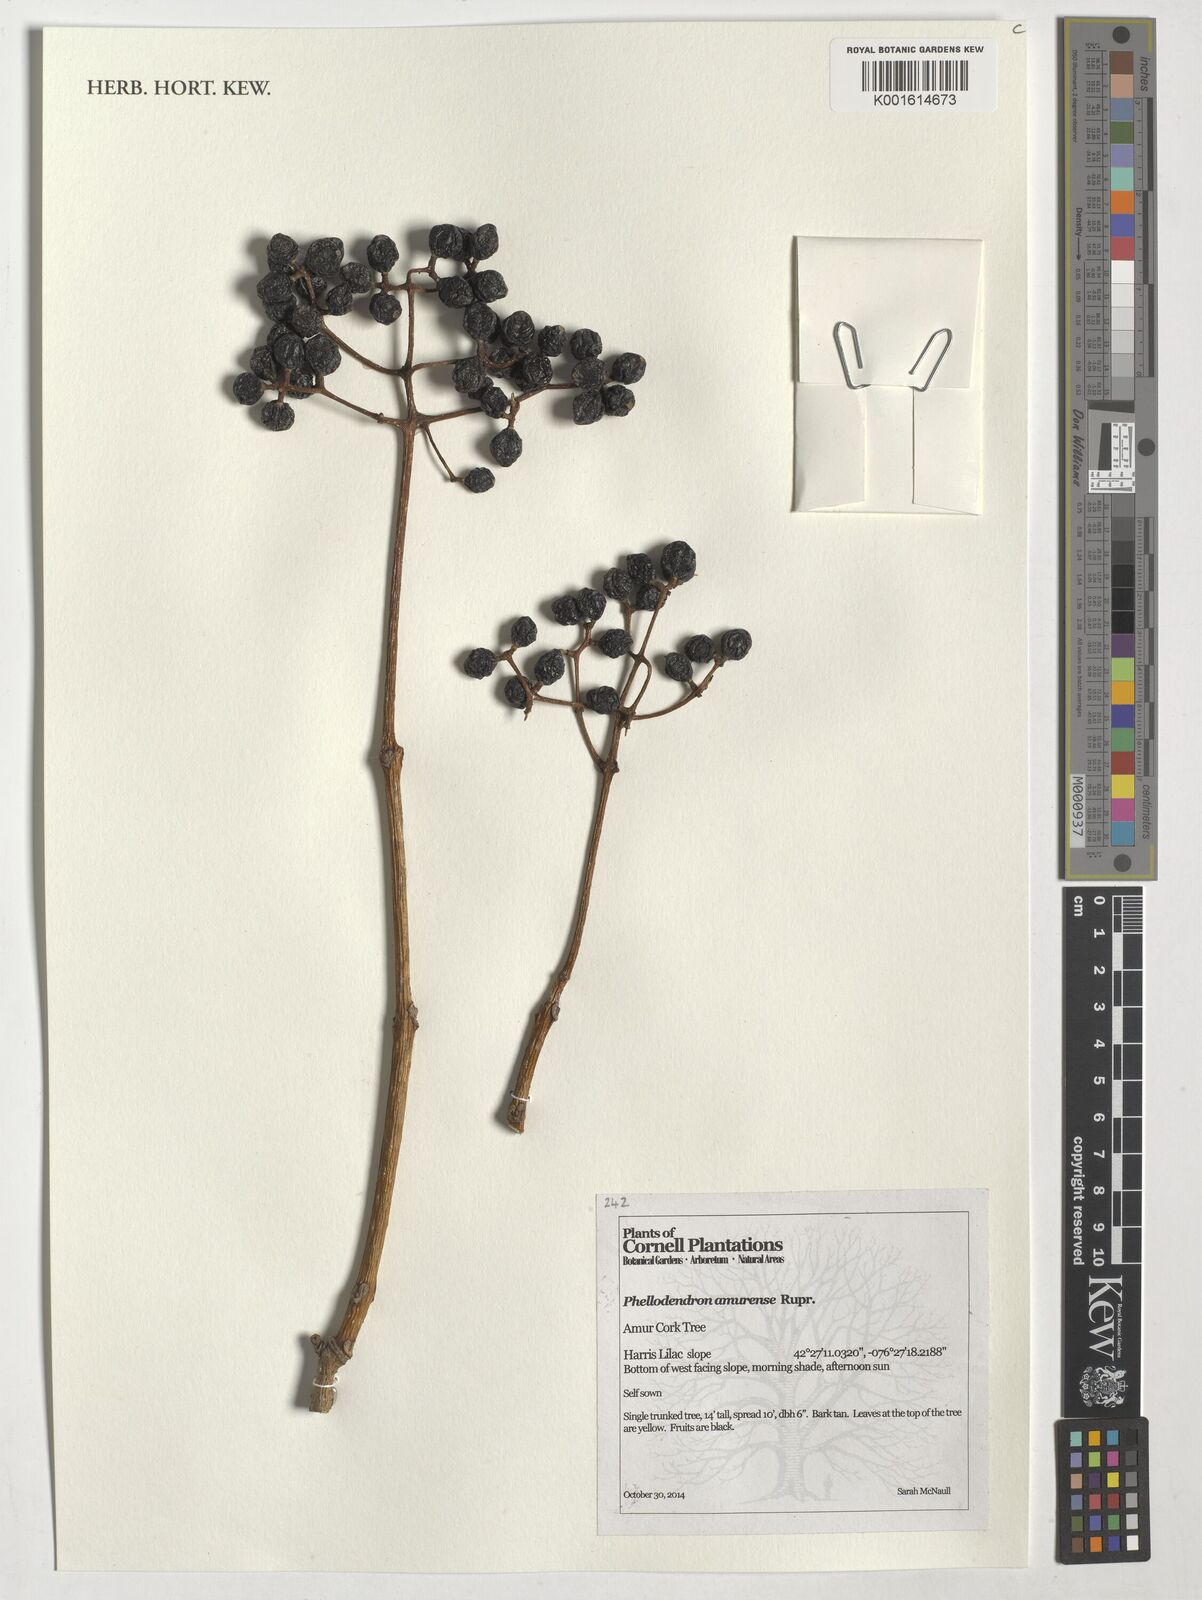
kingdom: Plantae
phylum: Tracheophyta
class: Magnoliopsida
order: Sapindales
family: Rutaceae
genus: Phellodendron
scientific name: Phellodendron amurense
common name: Amur corktree
